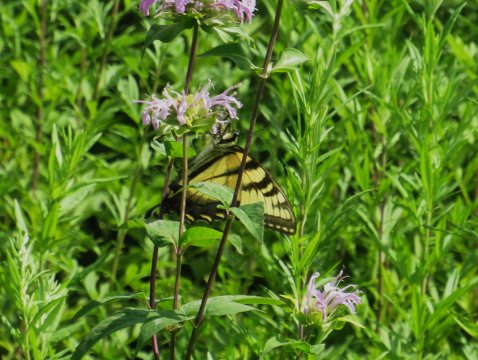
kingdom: Animalia
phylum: Arthropoda
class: Insecta
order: Lepidoptera
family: Papilionidae
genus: Pterourus
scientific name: Pterourus glaucus
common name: Eastern Tiger Swallowtail
